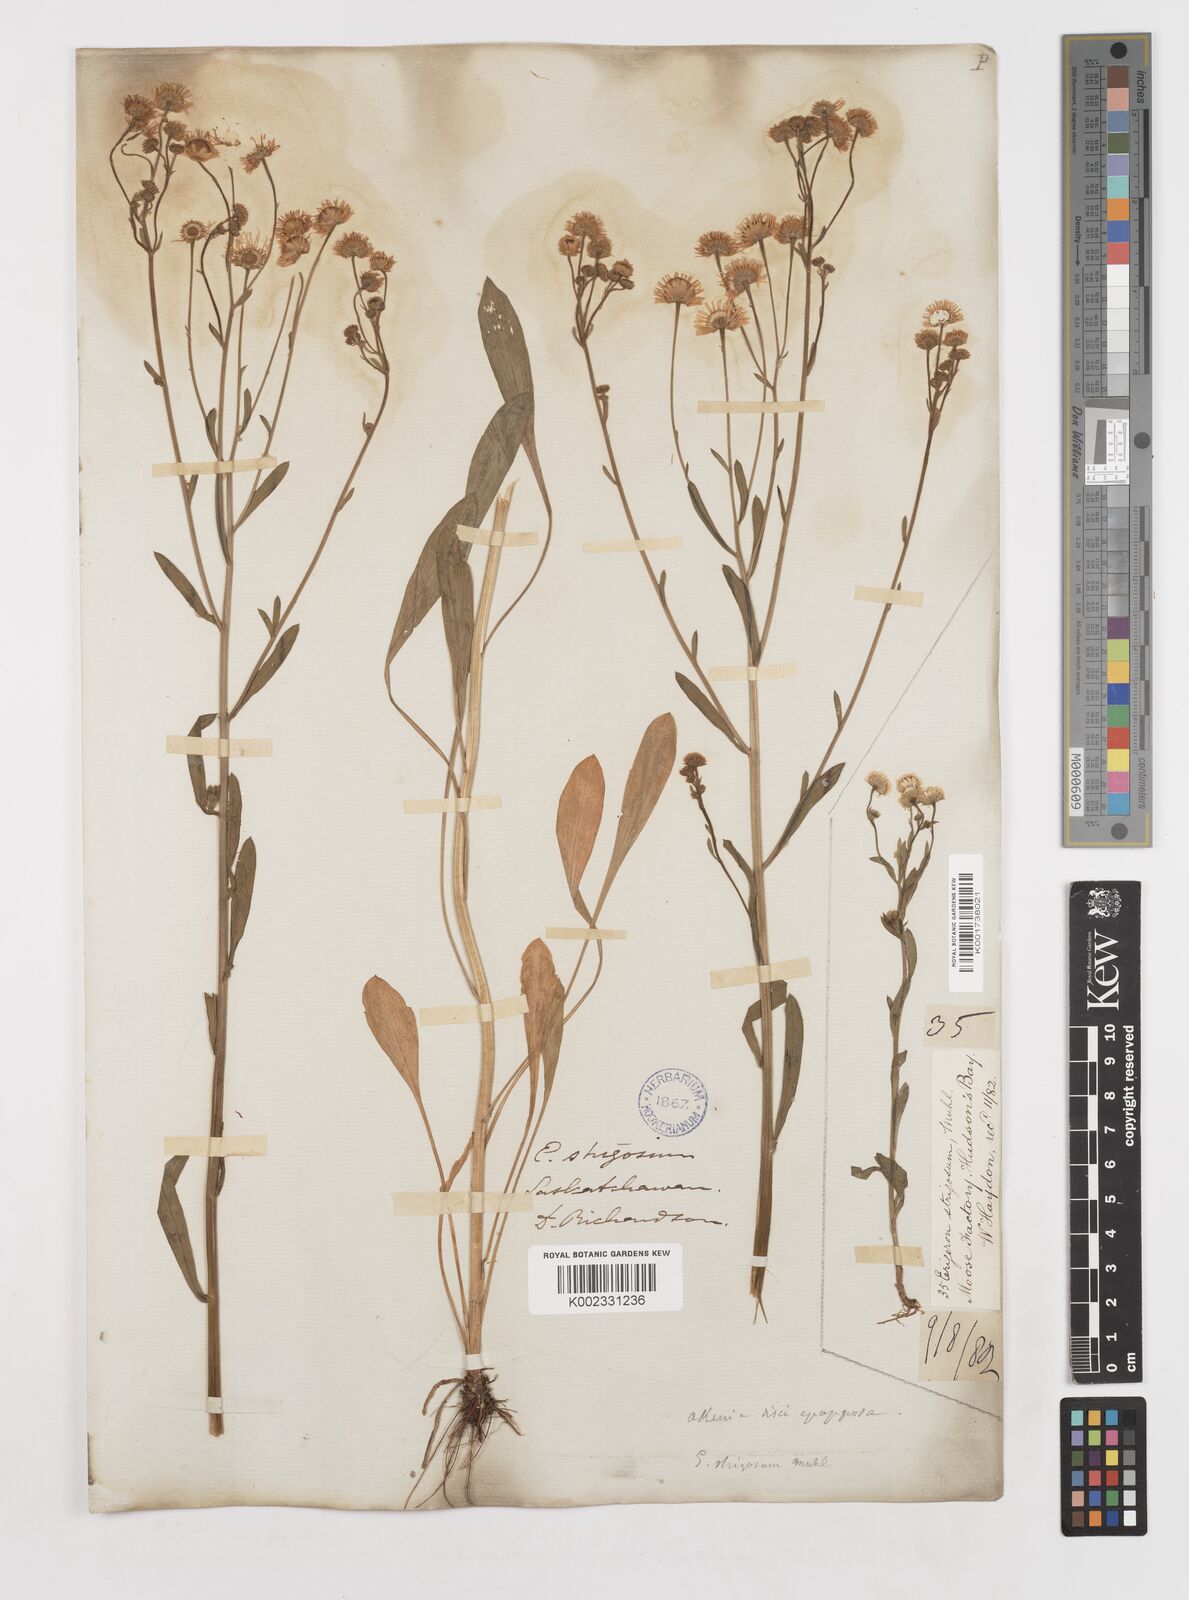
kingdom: Plantae
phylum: Tracheophyta
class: Magnoliopsida
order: Asterales
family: Asteraceae
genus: Erigeron
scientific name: Erigeron strigosus
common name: Common eastern fleabane
